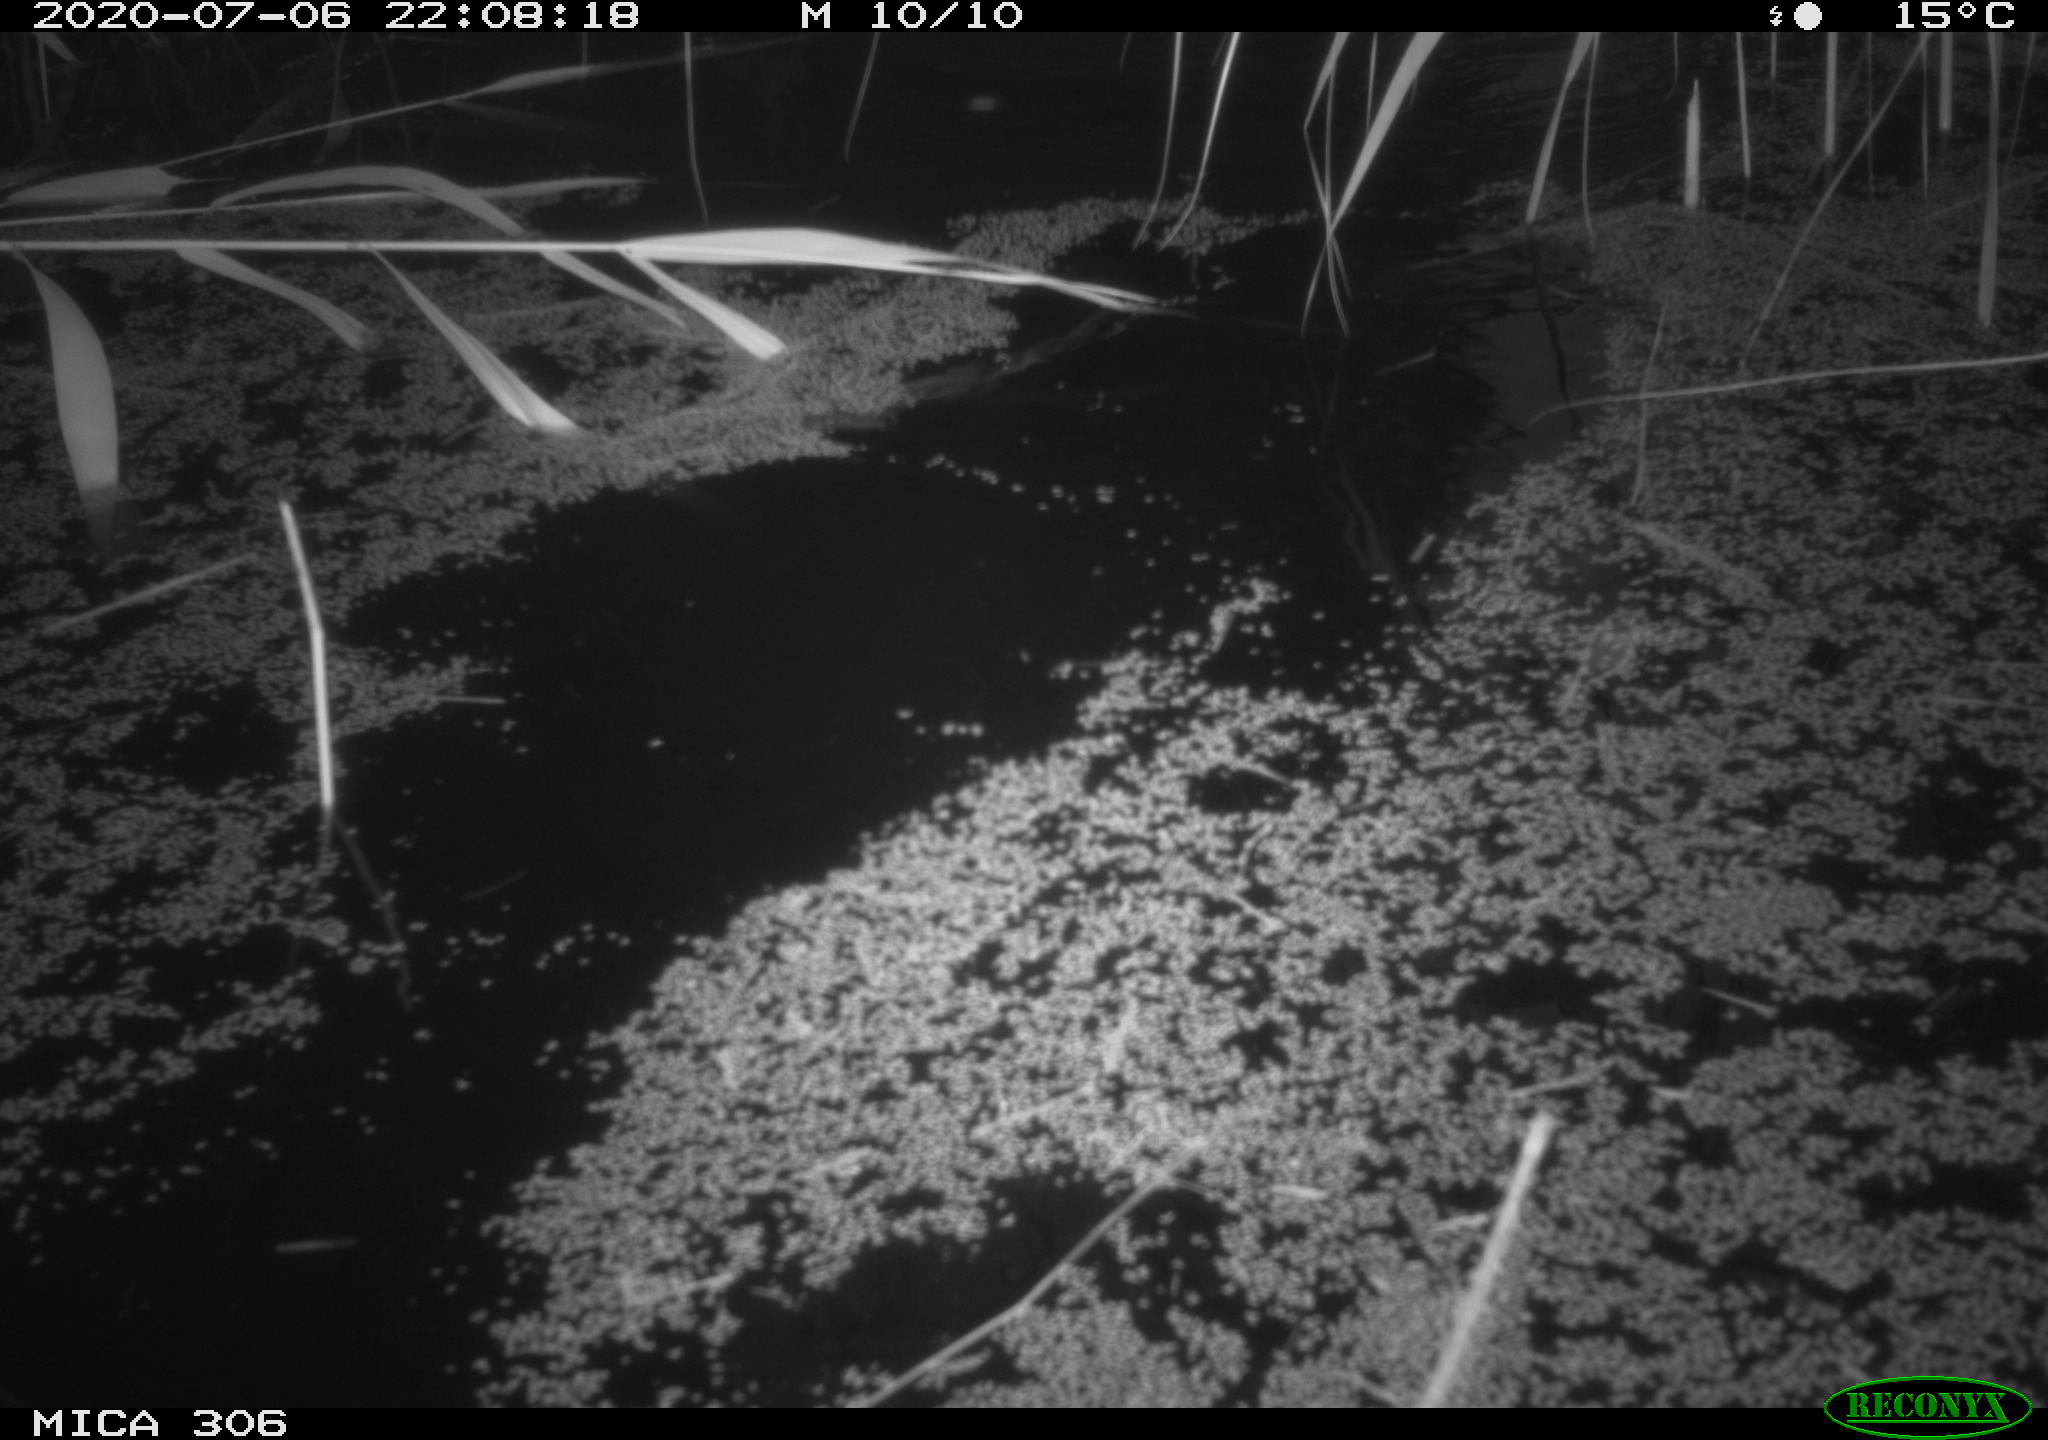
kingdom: Animalia
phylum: Chordata
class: Mammalia
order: Rodentia
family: Muridae
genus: Rattus
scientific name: Rattus norvegicus
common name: Brown rat
